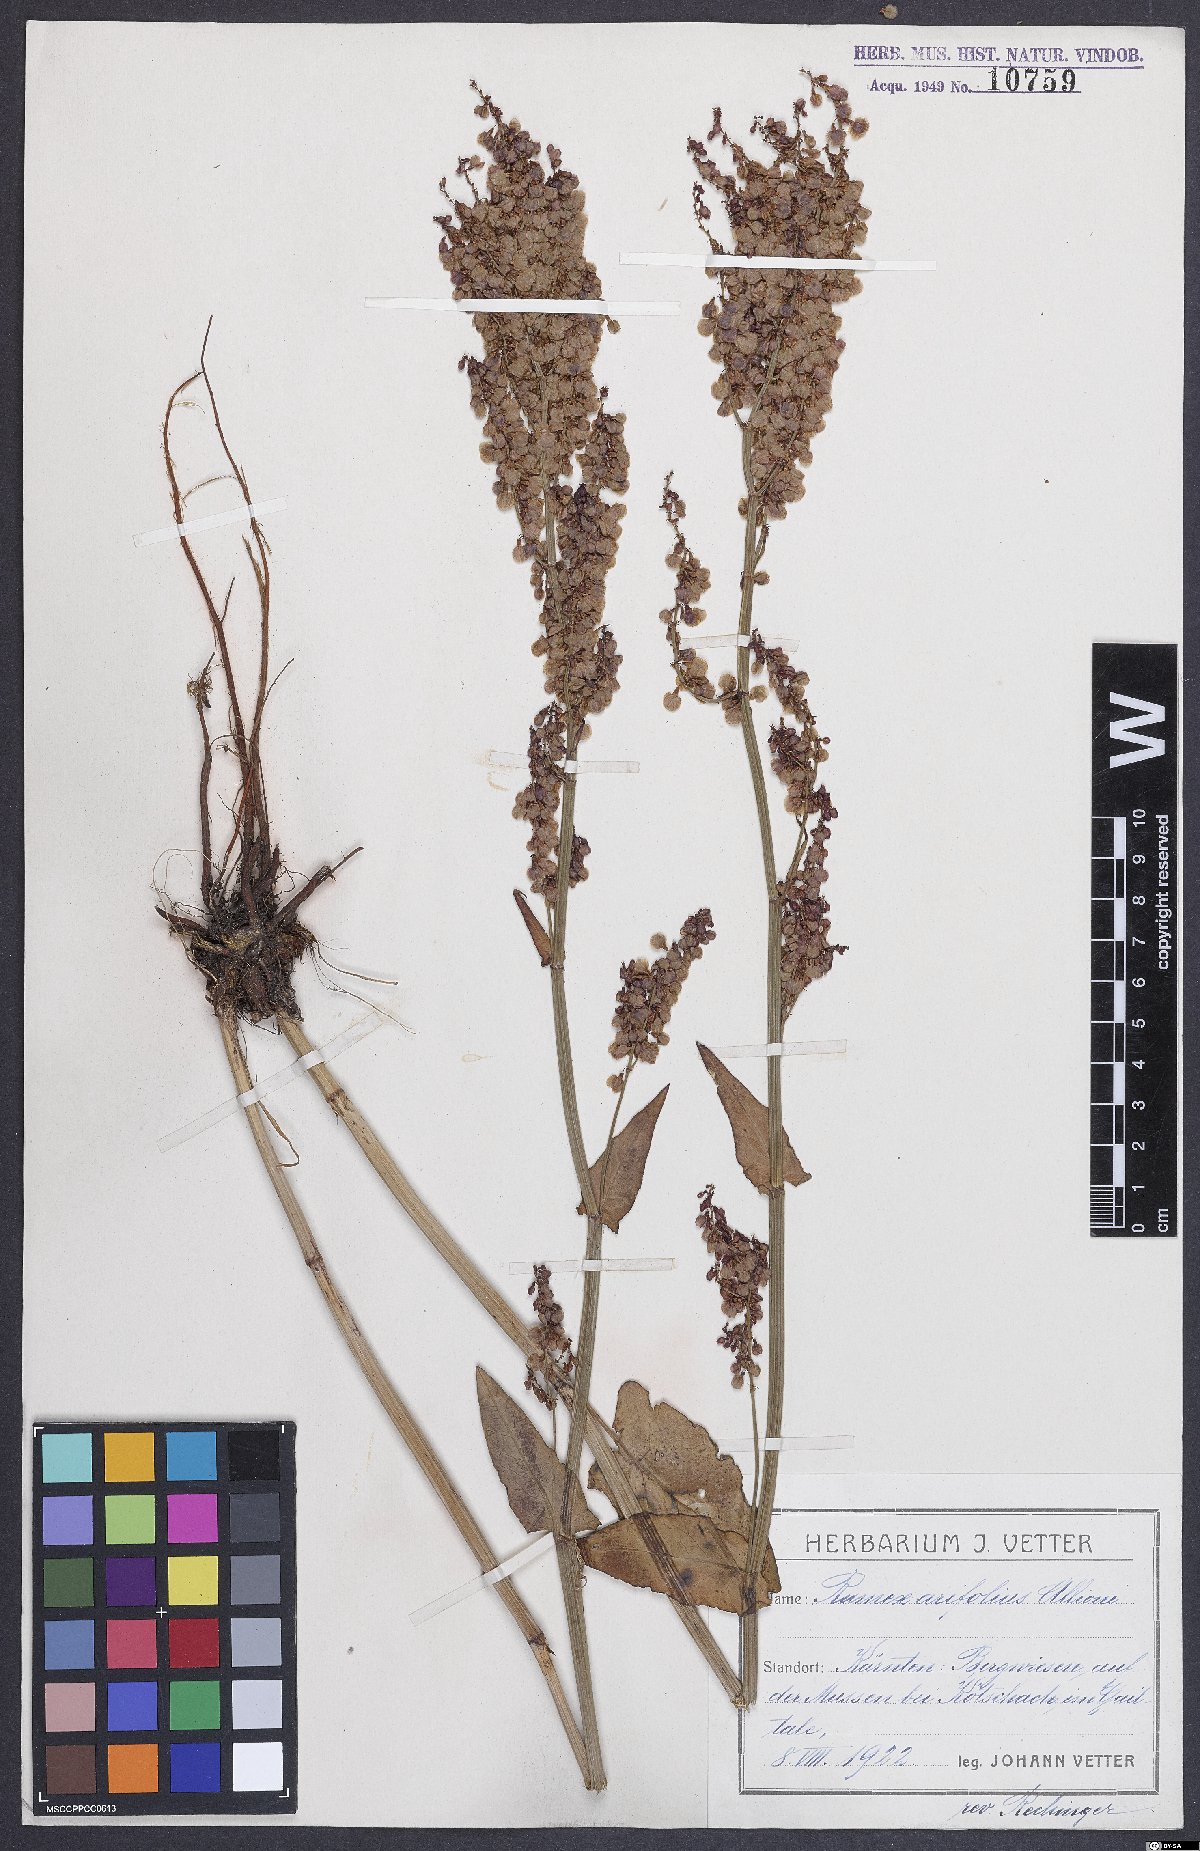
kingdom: Plantae
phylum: Tracheophyta
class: Magnoliopsida
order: Caryophyllales
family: Polygonaceae
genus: Rumex
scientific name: Rumex arifolius
